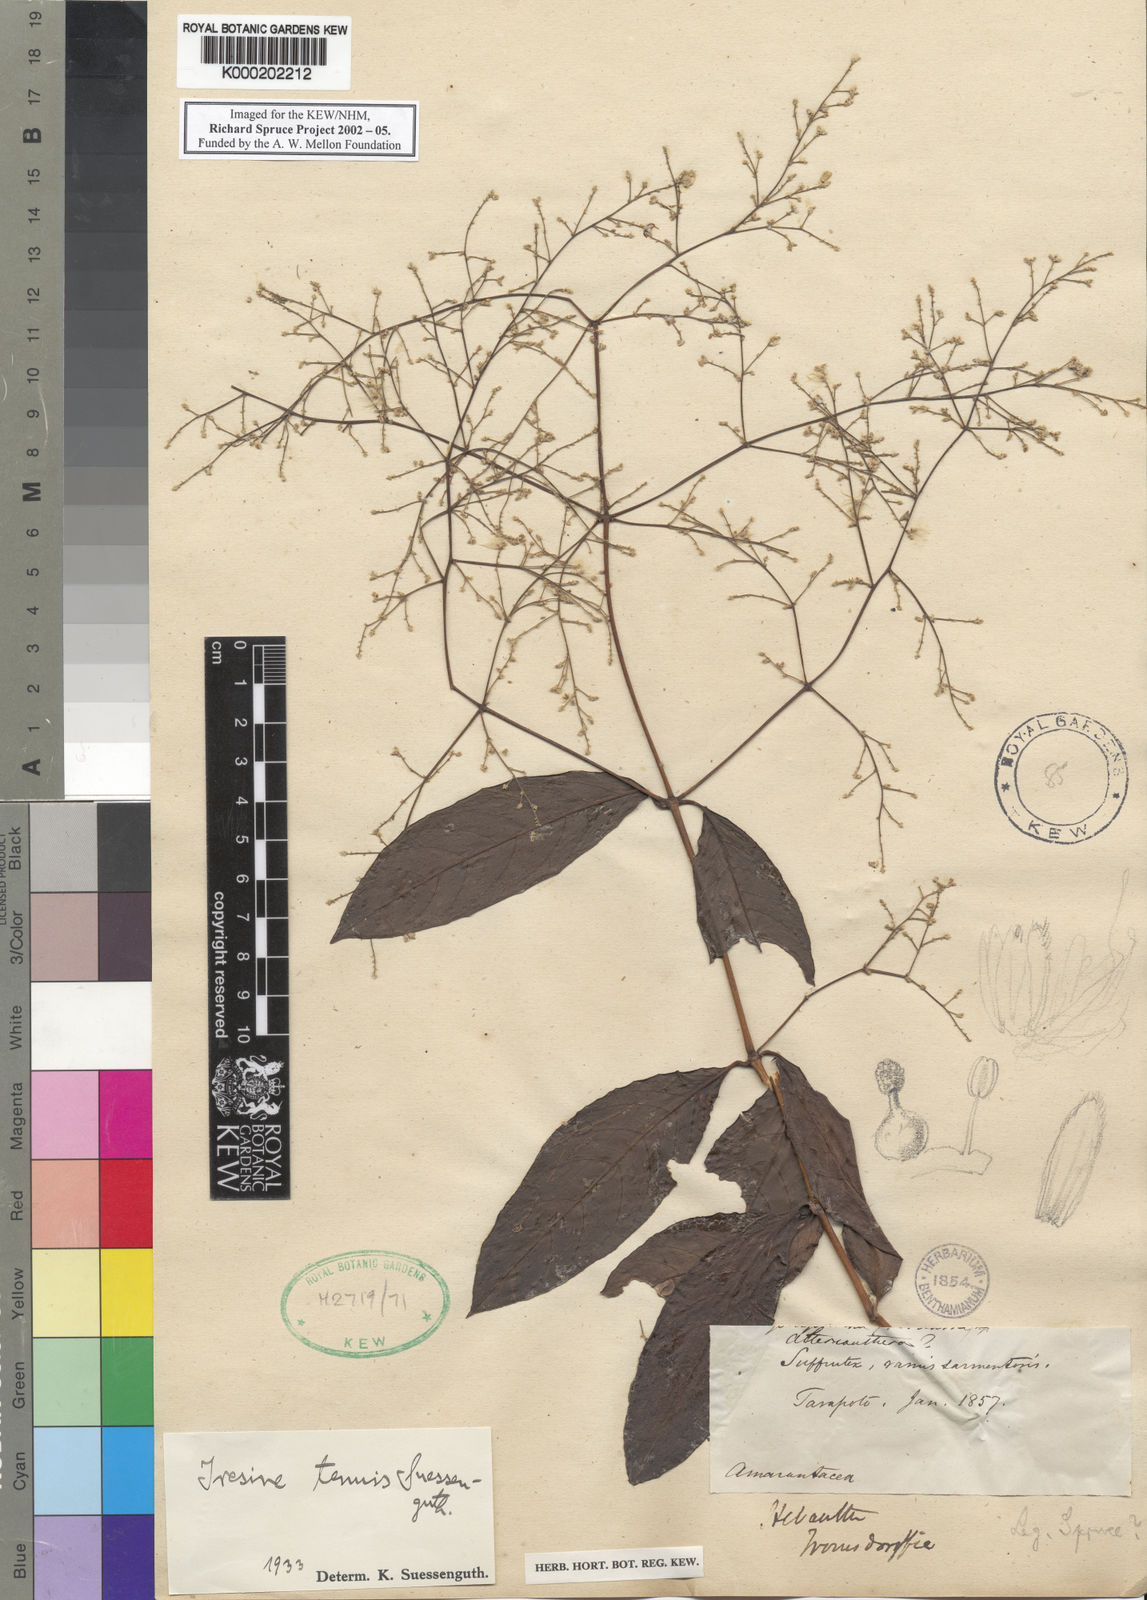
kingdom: Plantae
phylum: Tracheophyta
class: Magnoliopsida
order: Caryophyllales
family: Amaranthaceae
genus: Hebanthe
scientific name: Hebanthe erianthos
